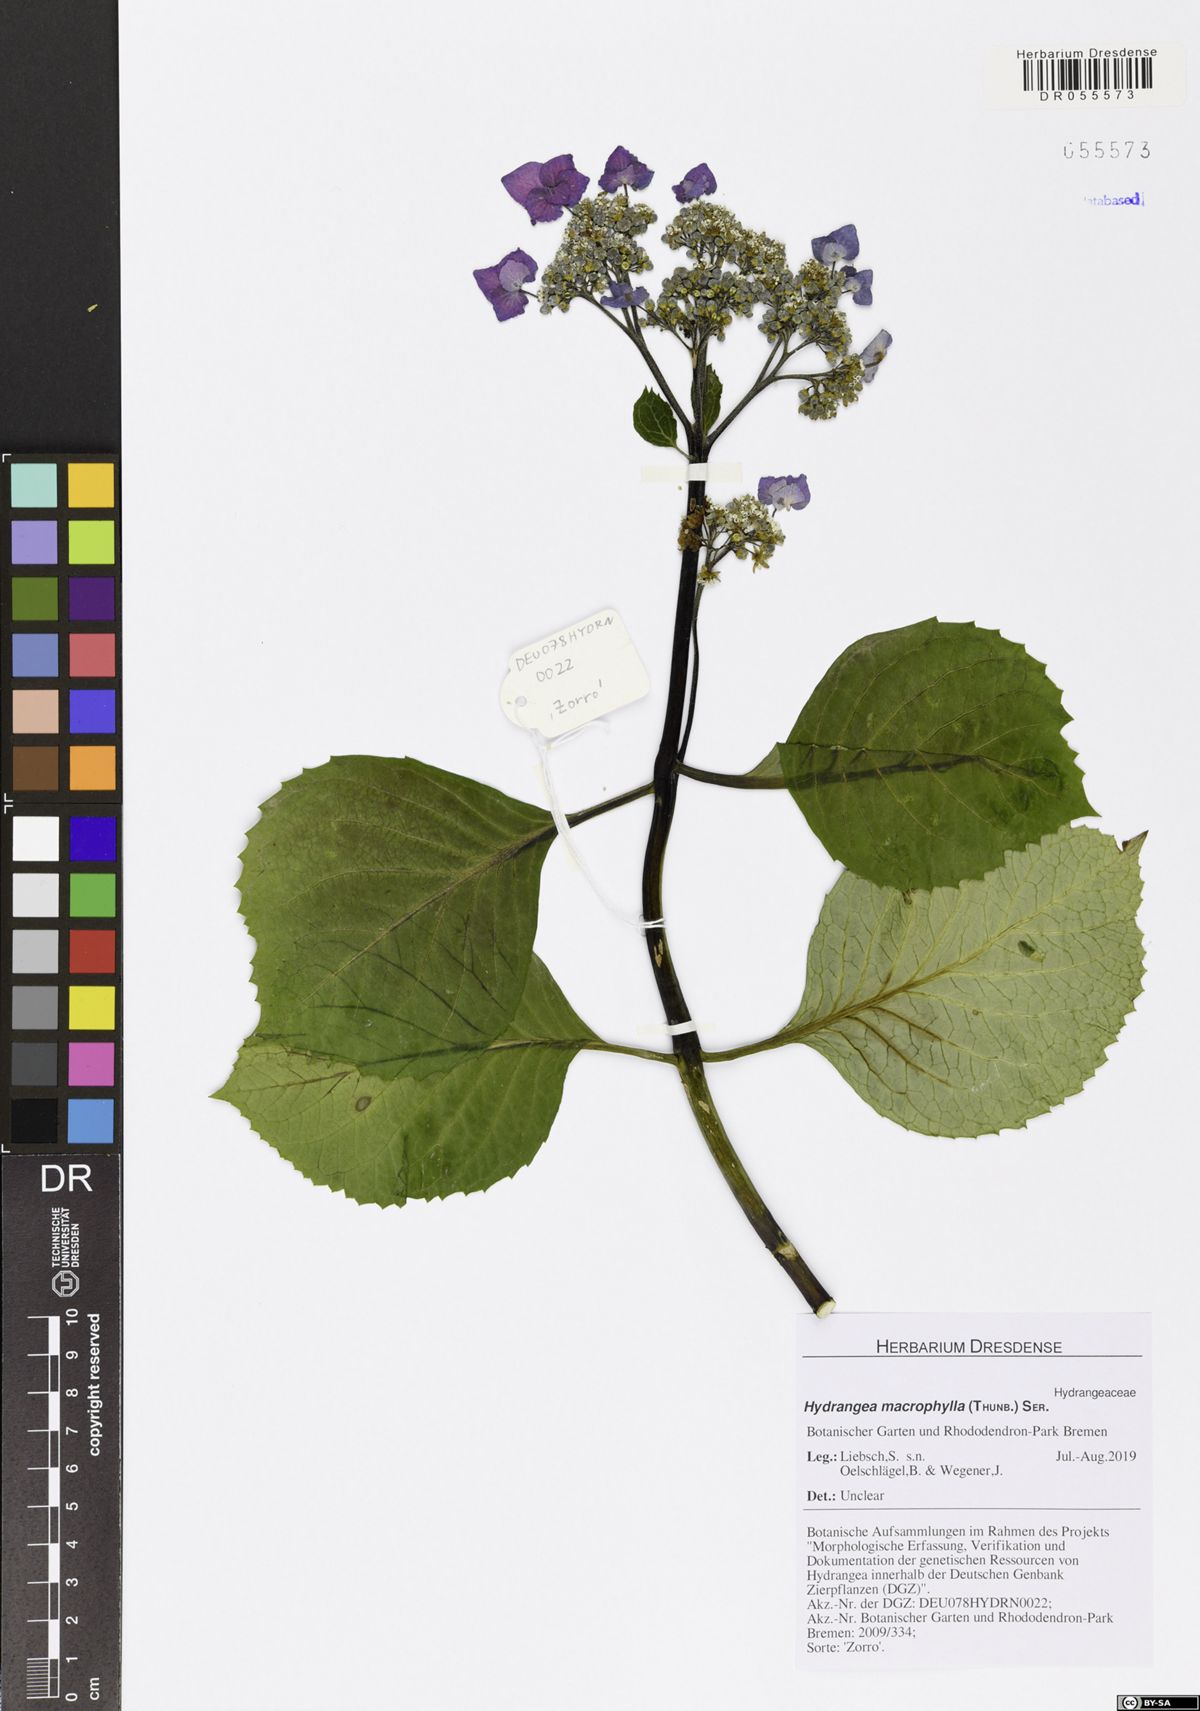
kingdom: Plantae
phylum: Tracheophyta
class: Magnoliopsida
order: Cornales
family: Hydrangeaceae
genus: Hydrangea
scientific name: Hydrangea macrophylla
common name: Hydrangea
